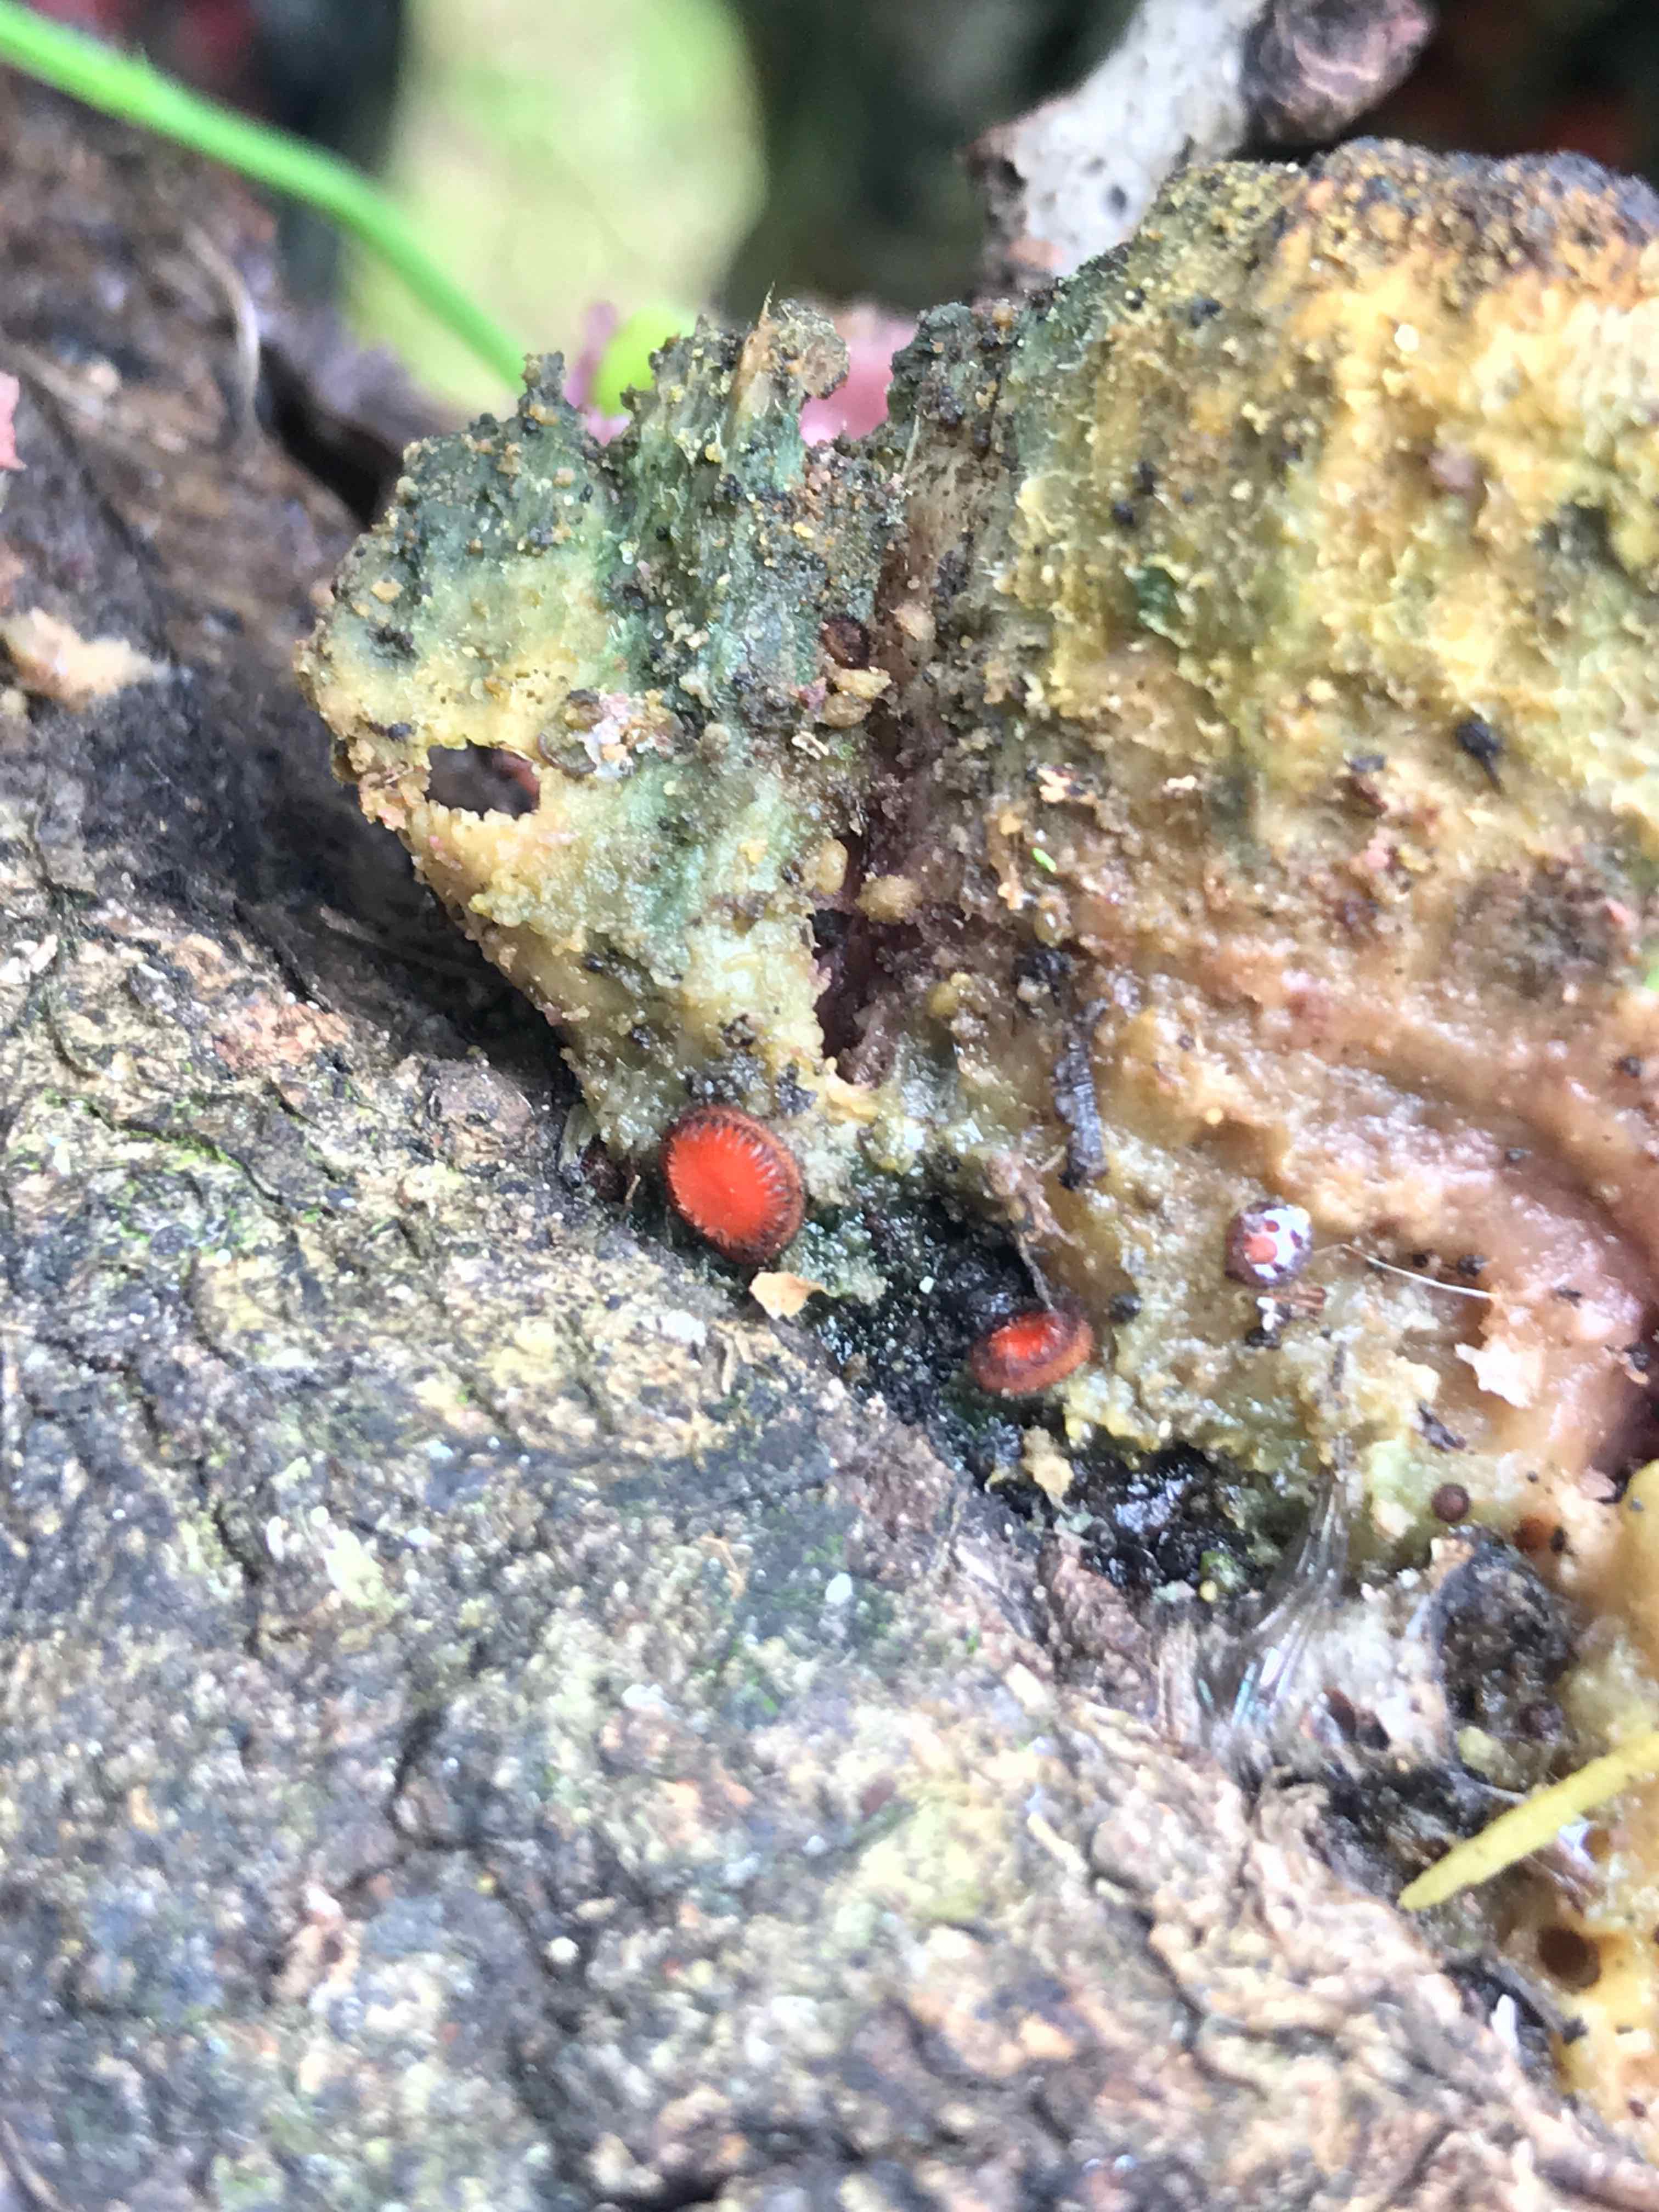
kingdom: Fungi
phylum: Ascomycota
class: Pezizomycetes
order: Pezizales
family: Pyronemataceae
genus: Scutellinia
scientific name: Scutellinia scutellata
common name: frynset skjoldbæger
